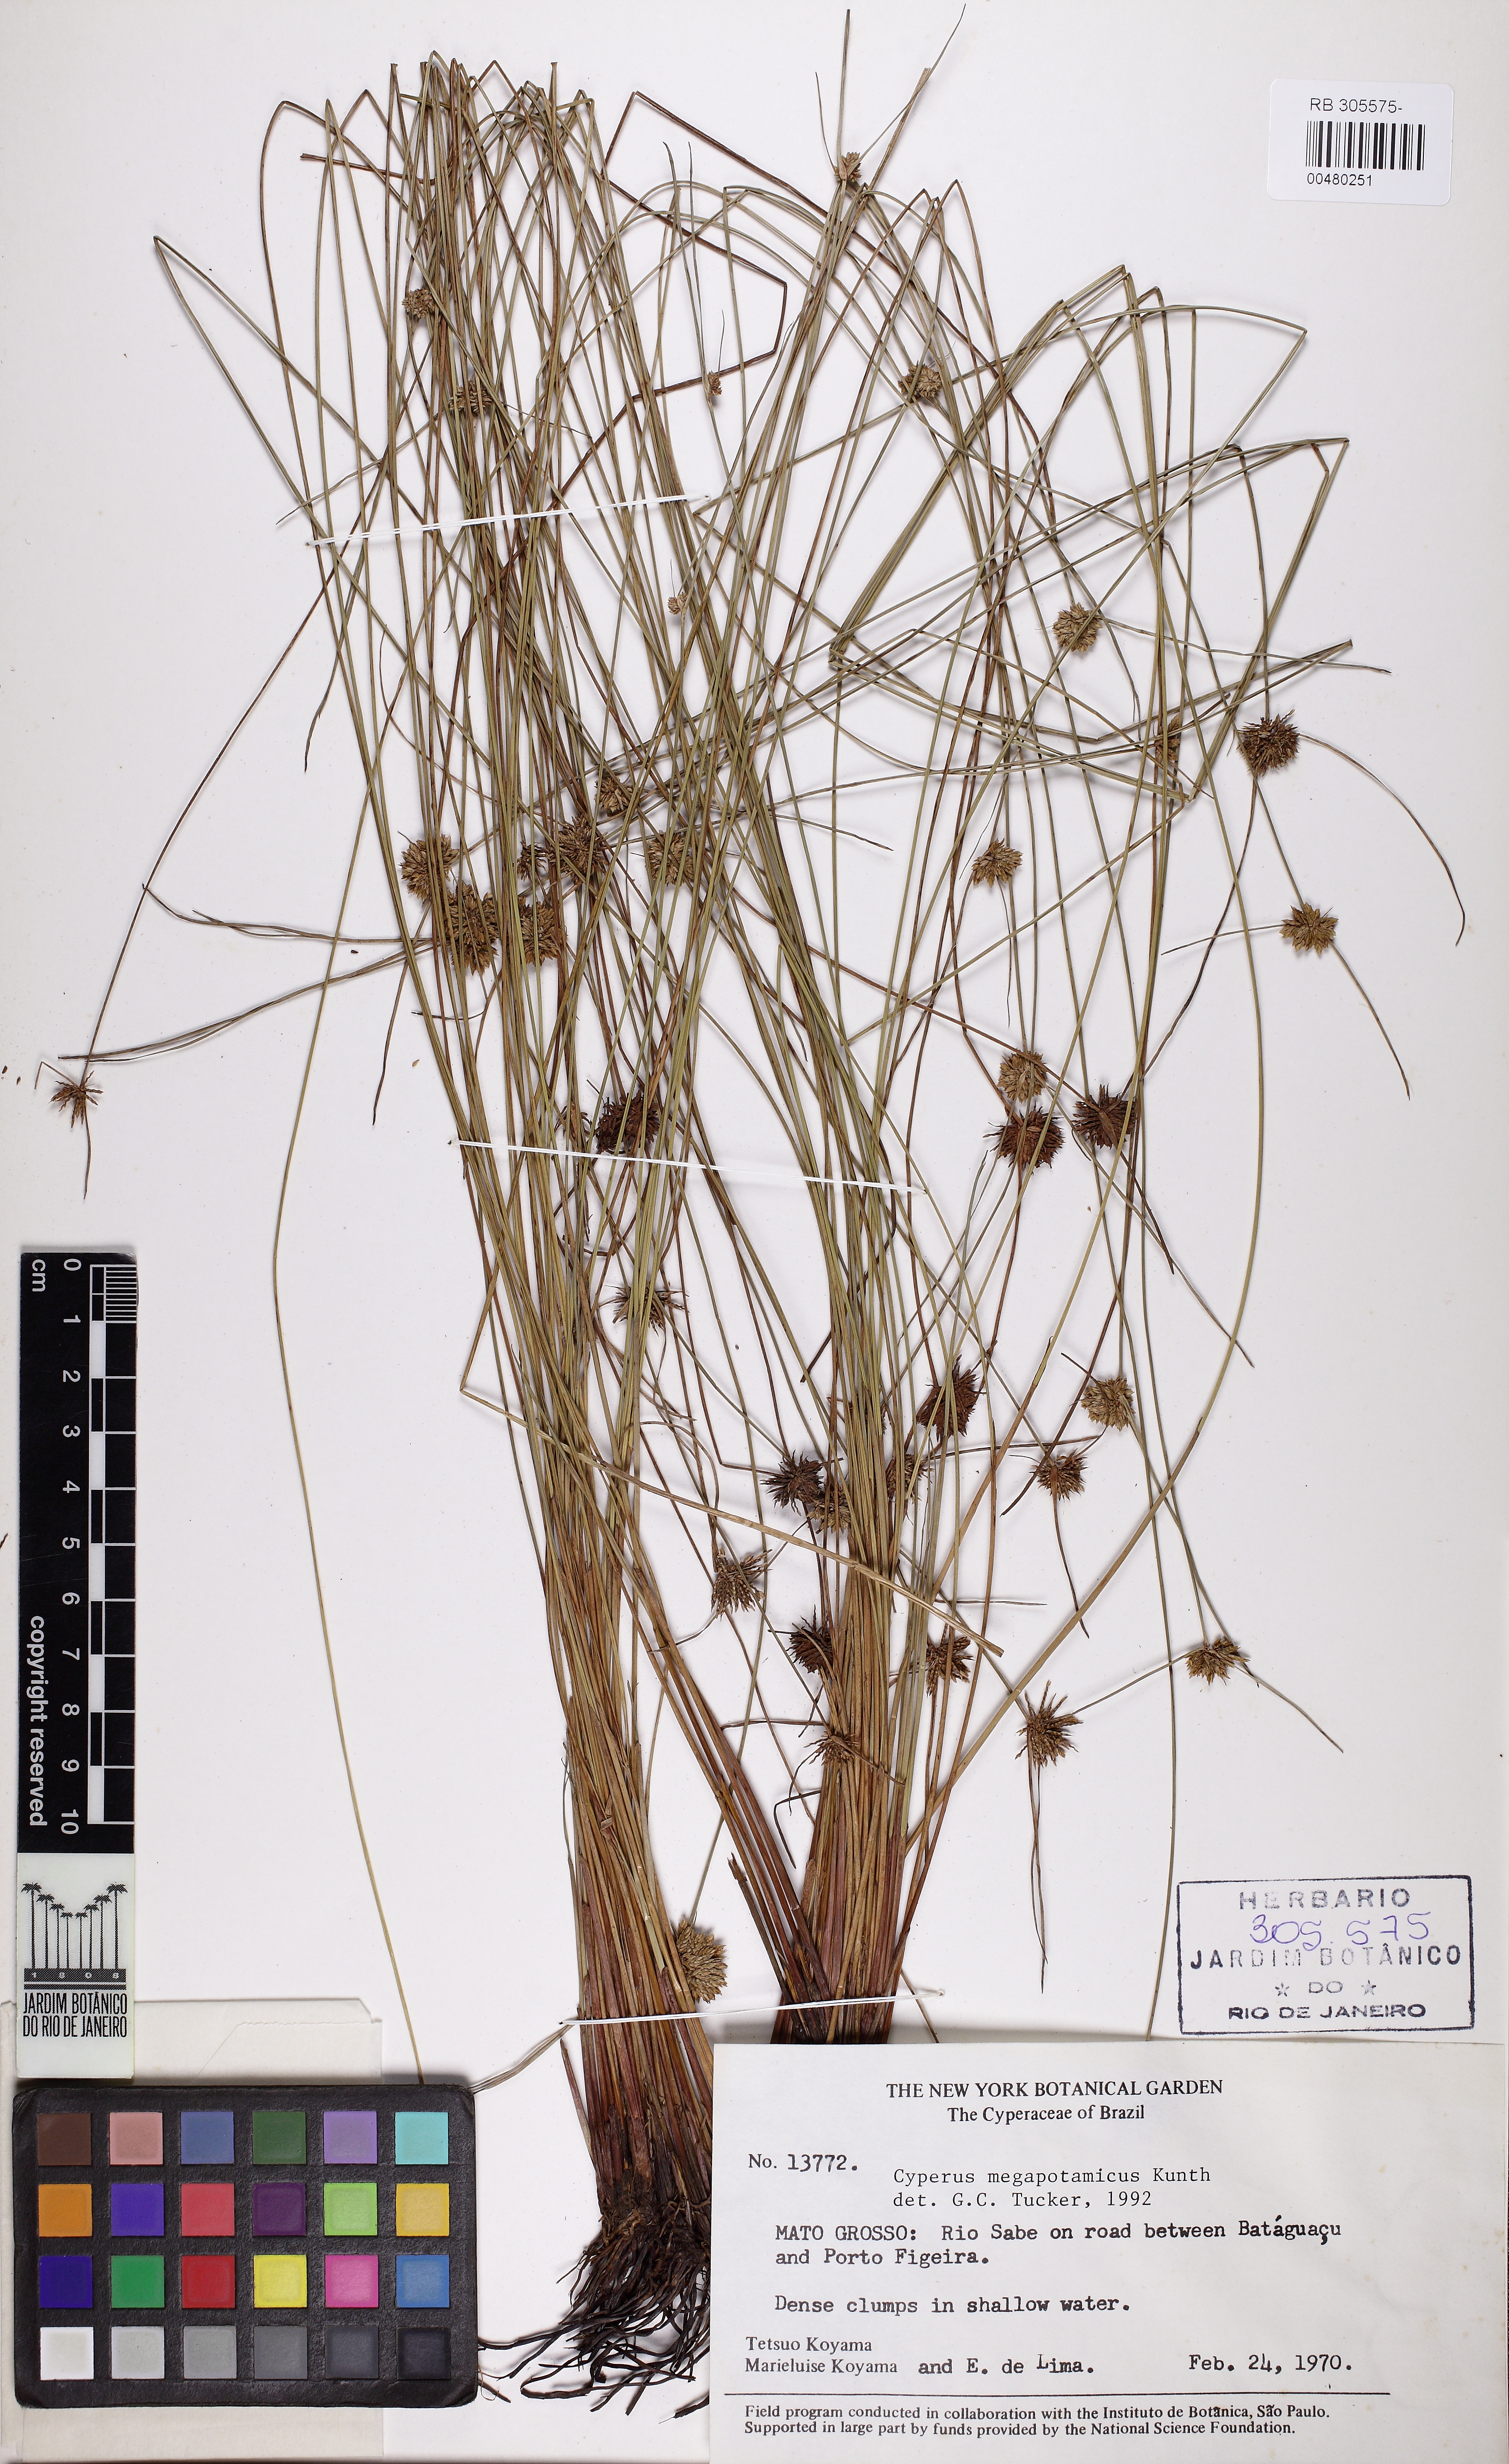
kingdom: Plantae
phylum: Tracheophyta
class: Liliopsida
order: Poales
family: Cyperaceae
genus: Cyperus
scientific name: Cyperus megapotamicus
